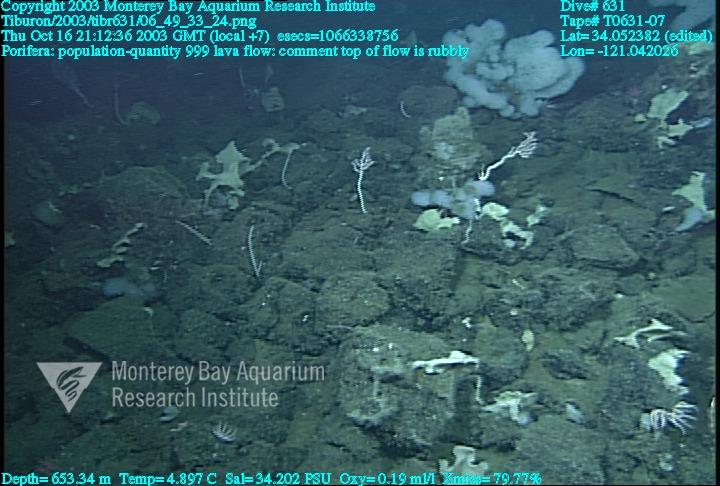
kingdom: Animalia
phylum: Porifera
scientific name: Porifera
